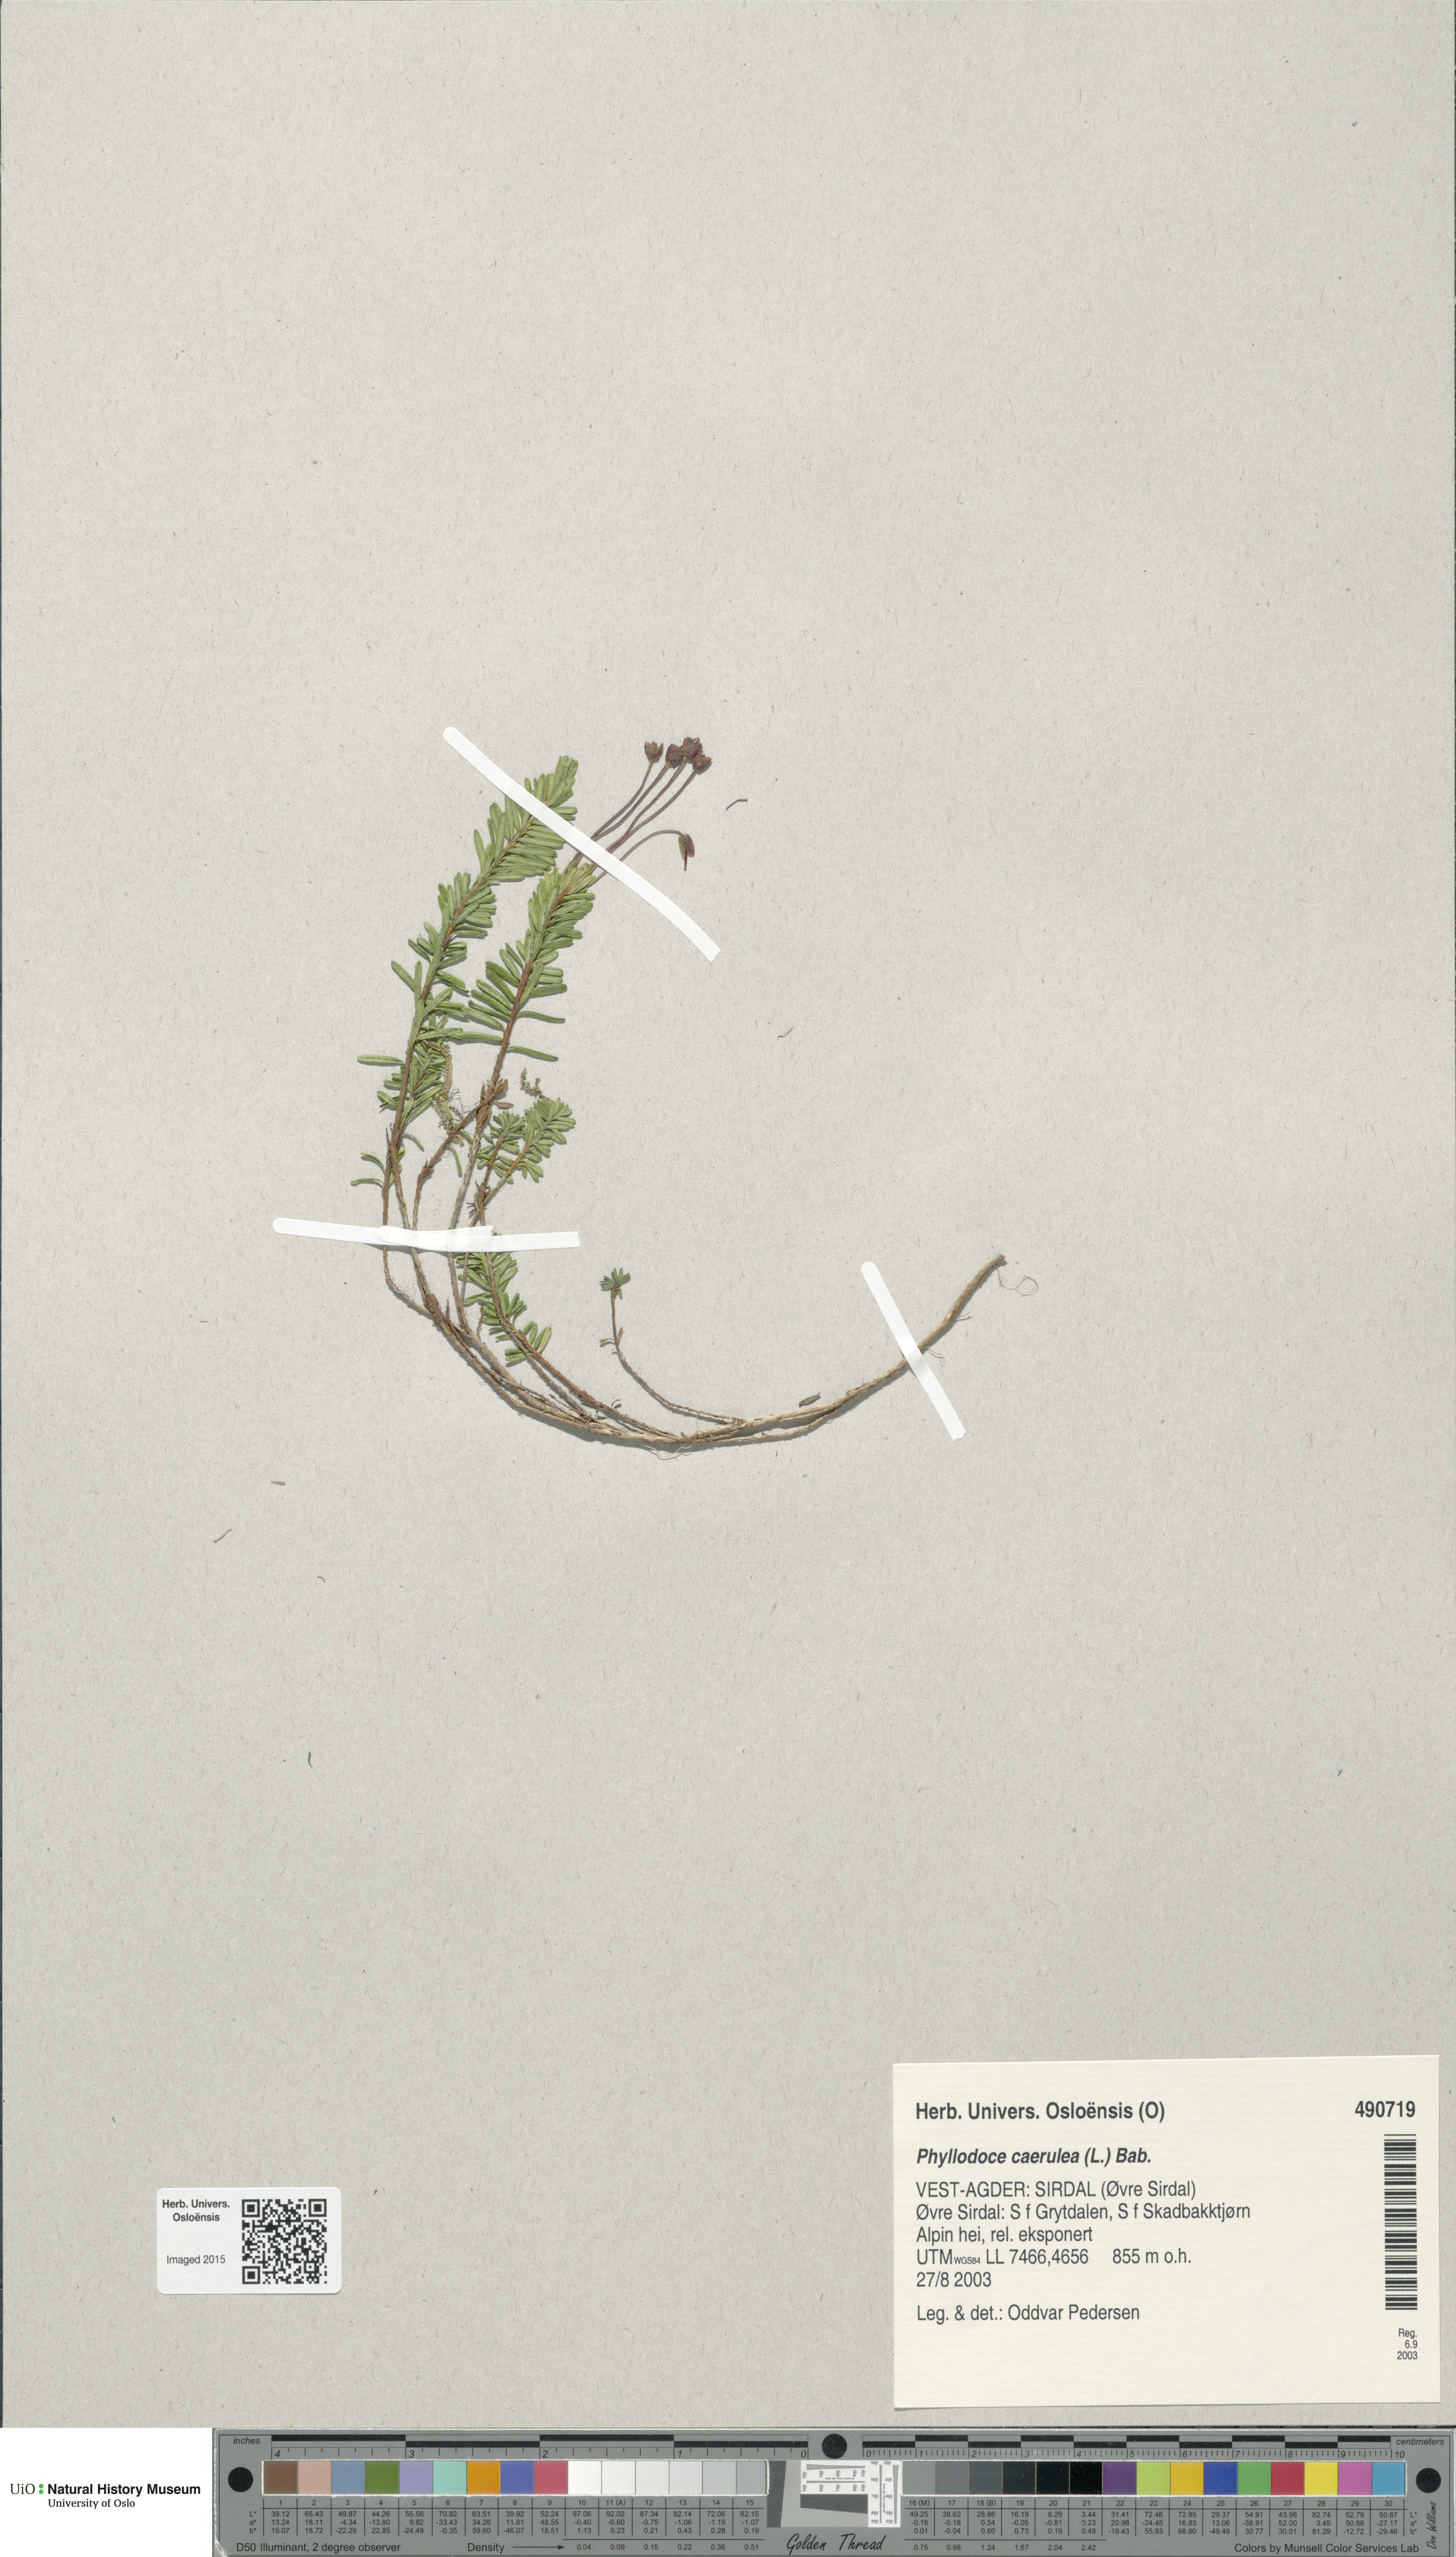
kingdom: Plantae
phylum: Tracheophyta
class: Magnoliopsida
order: Ericales
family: Ericaceae
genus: Phyllodoce
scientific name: Phyllodoce caerulea
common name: Blue heath
